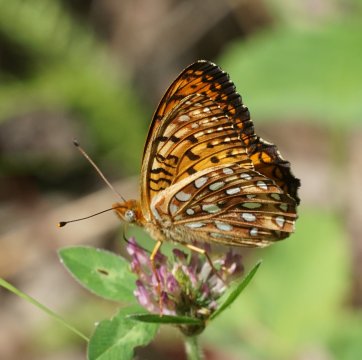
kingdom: Animalia
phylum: Arthropoda
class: Insecta
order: Lepidoptera
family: Nymphalidae
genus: Speyeria
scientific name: Speyeria atlantis
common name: Atlantis Fritillary
